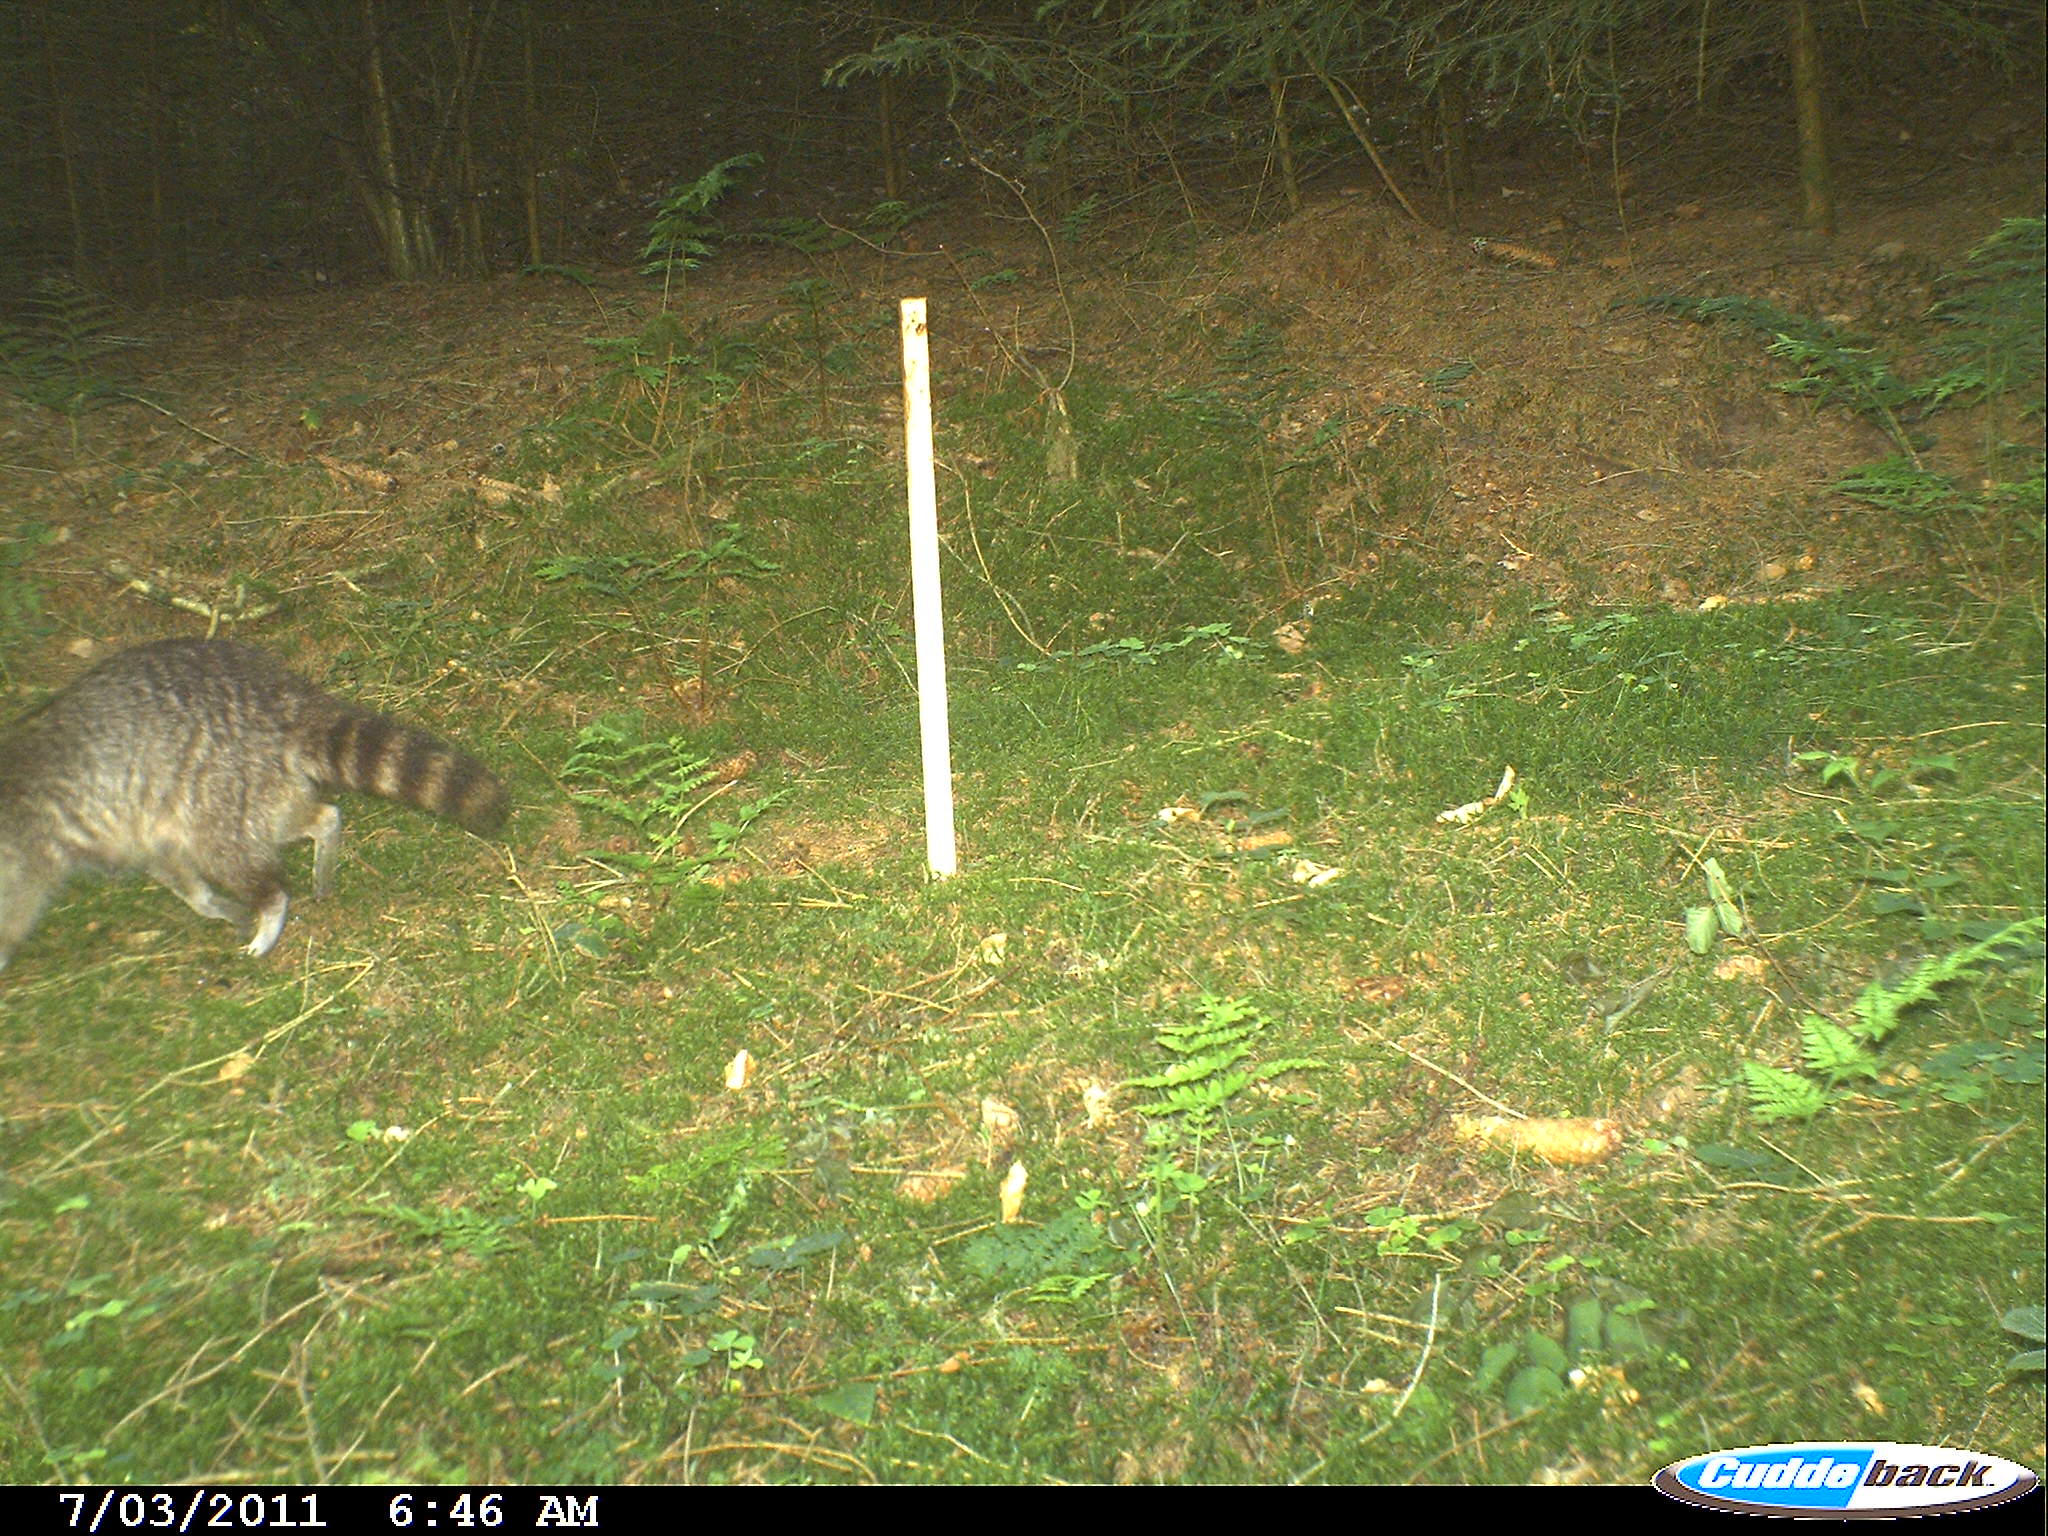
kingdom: Animalia
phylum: Chordata
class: Mammalia
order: Carnivora
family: Procyonidae
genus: Procyon
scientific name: Procyon lotor
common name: Raccoon
